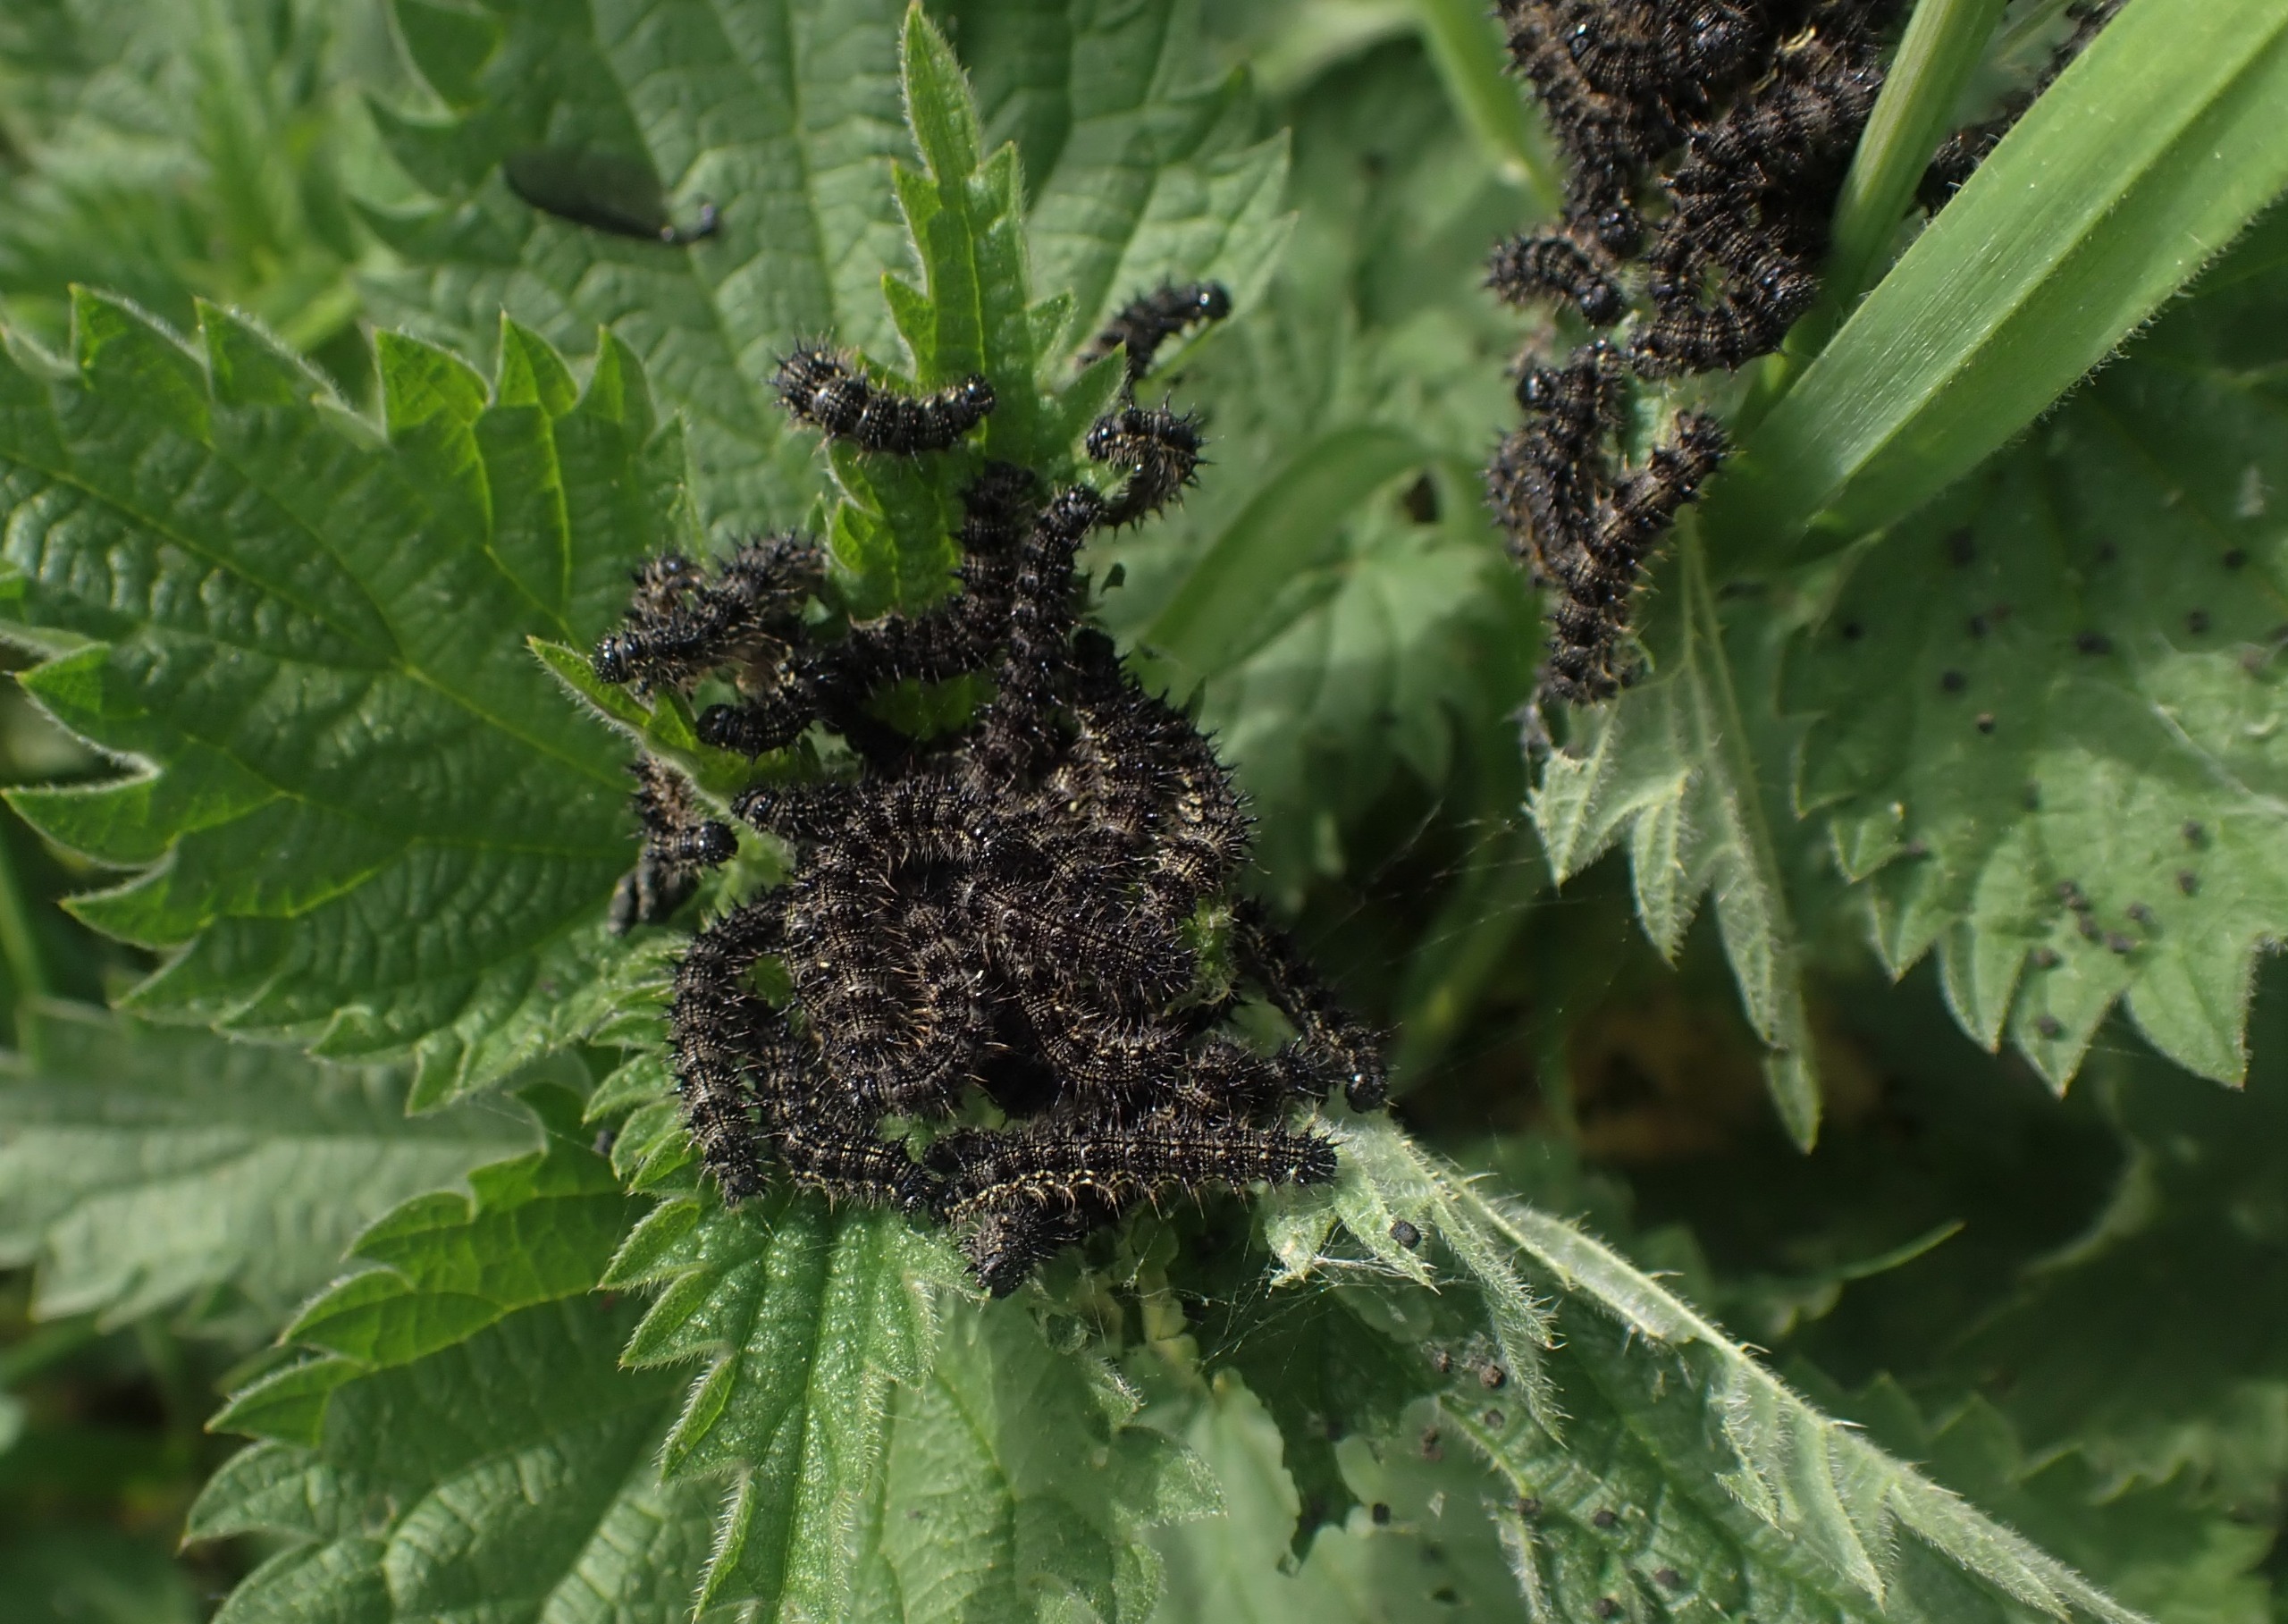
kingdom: Animalia
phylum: Arthropoda
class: Insecta
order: Lepidoptera
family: Nymphalidae
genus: Aglais
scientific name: Aglais urticae
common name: Nældens takvinge
